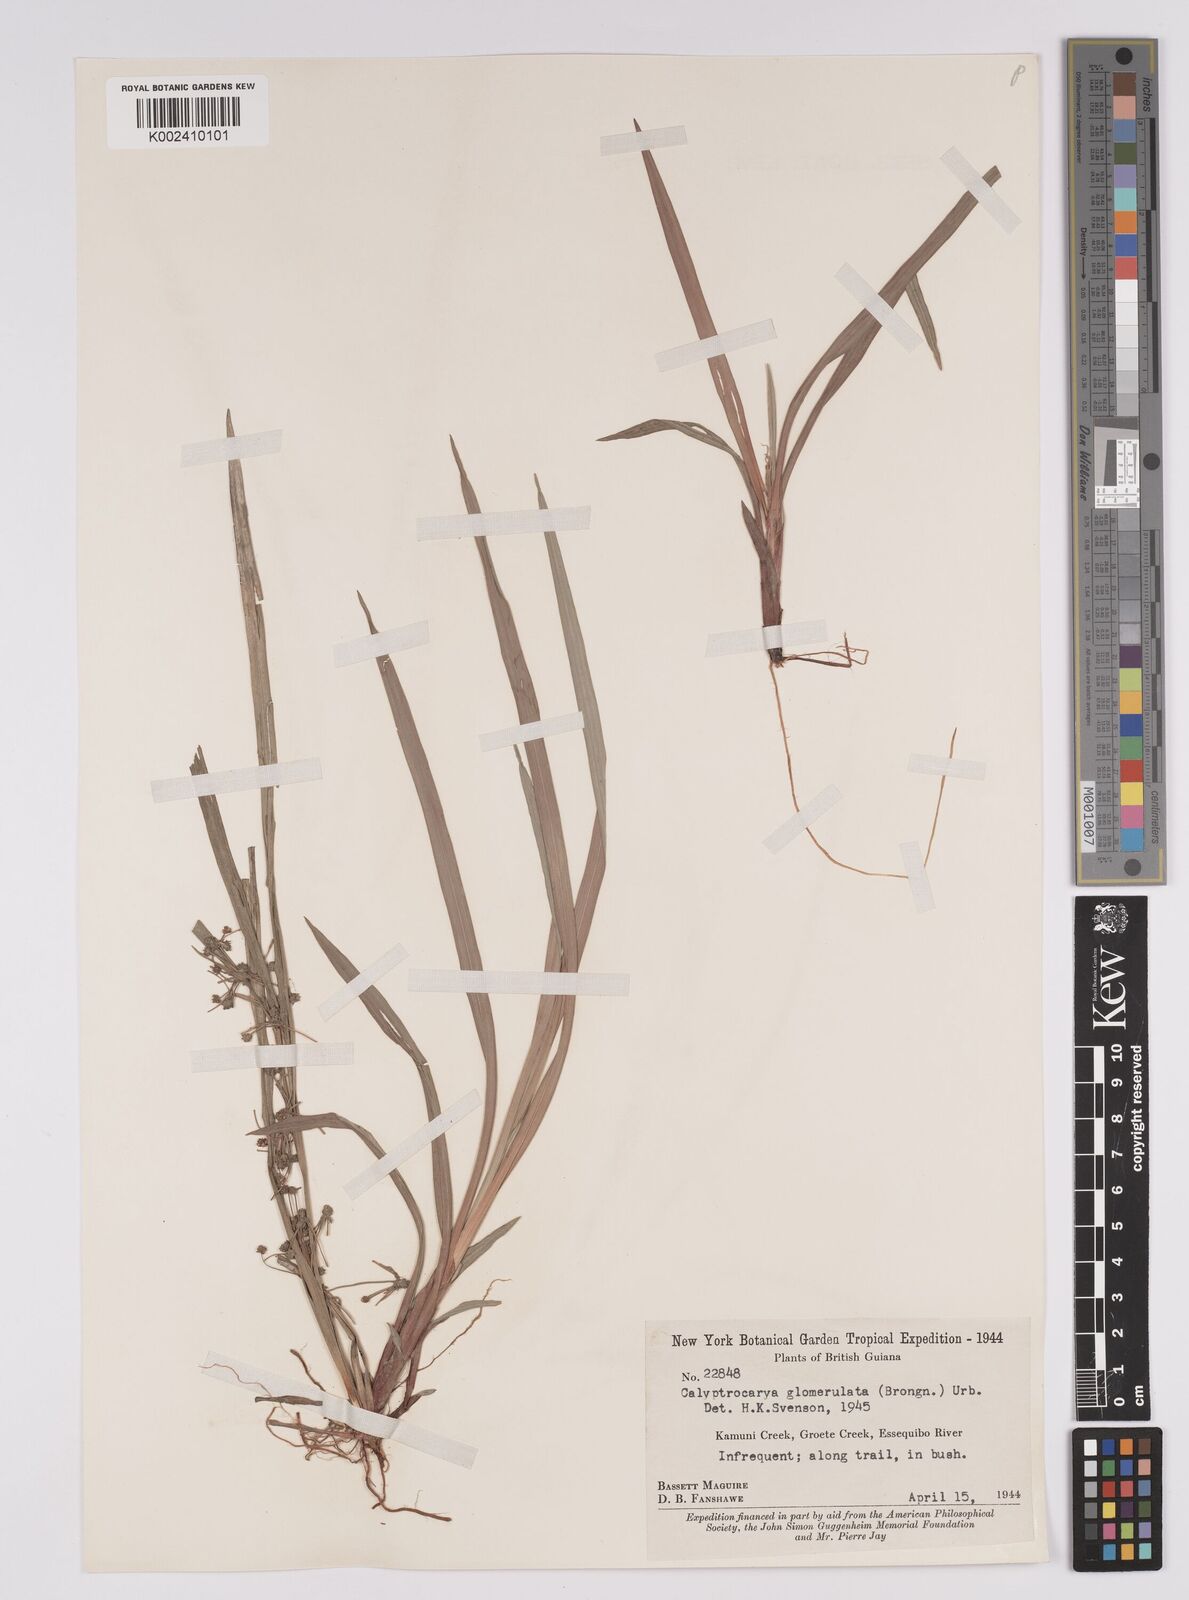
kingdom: Plantae
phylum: Tracheophyta
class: Liliopsida
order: Poales
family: Cyperaceae
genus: Calyptrocarya
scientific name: Calyptrocarya glomerulata
